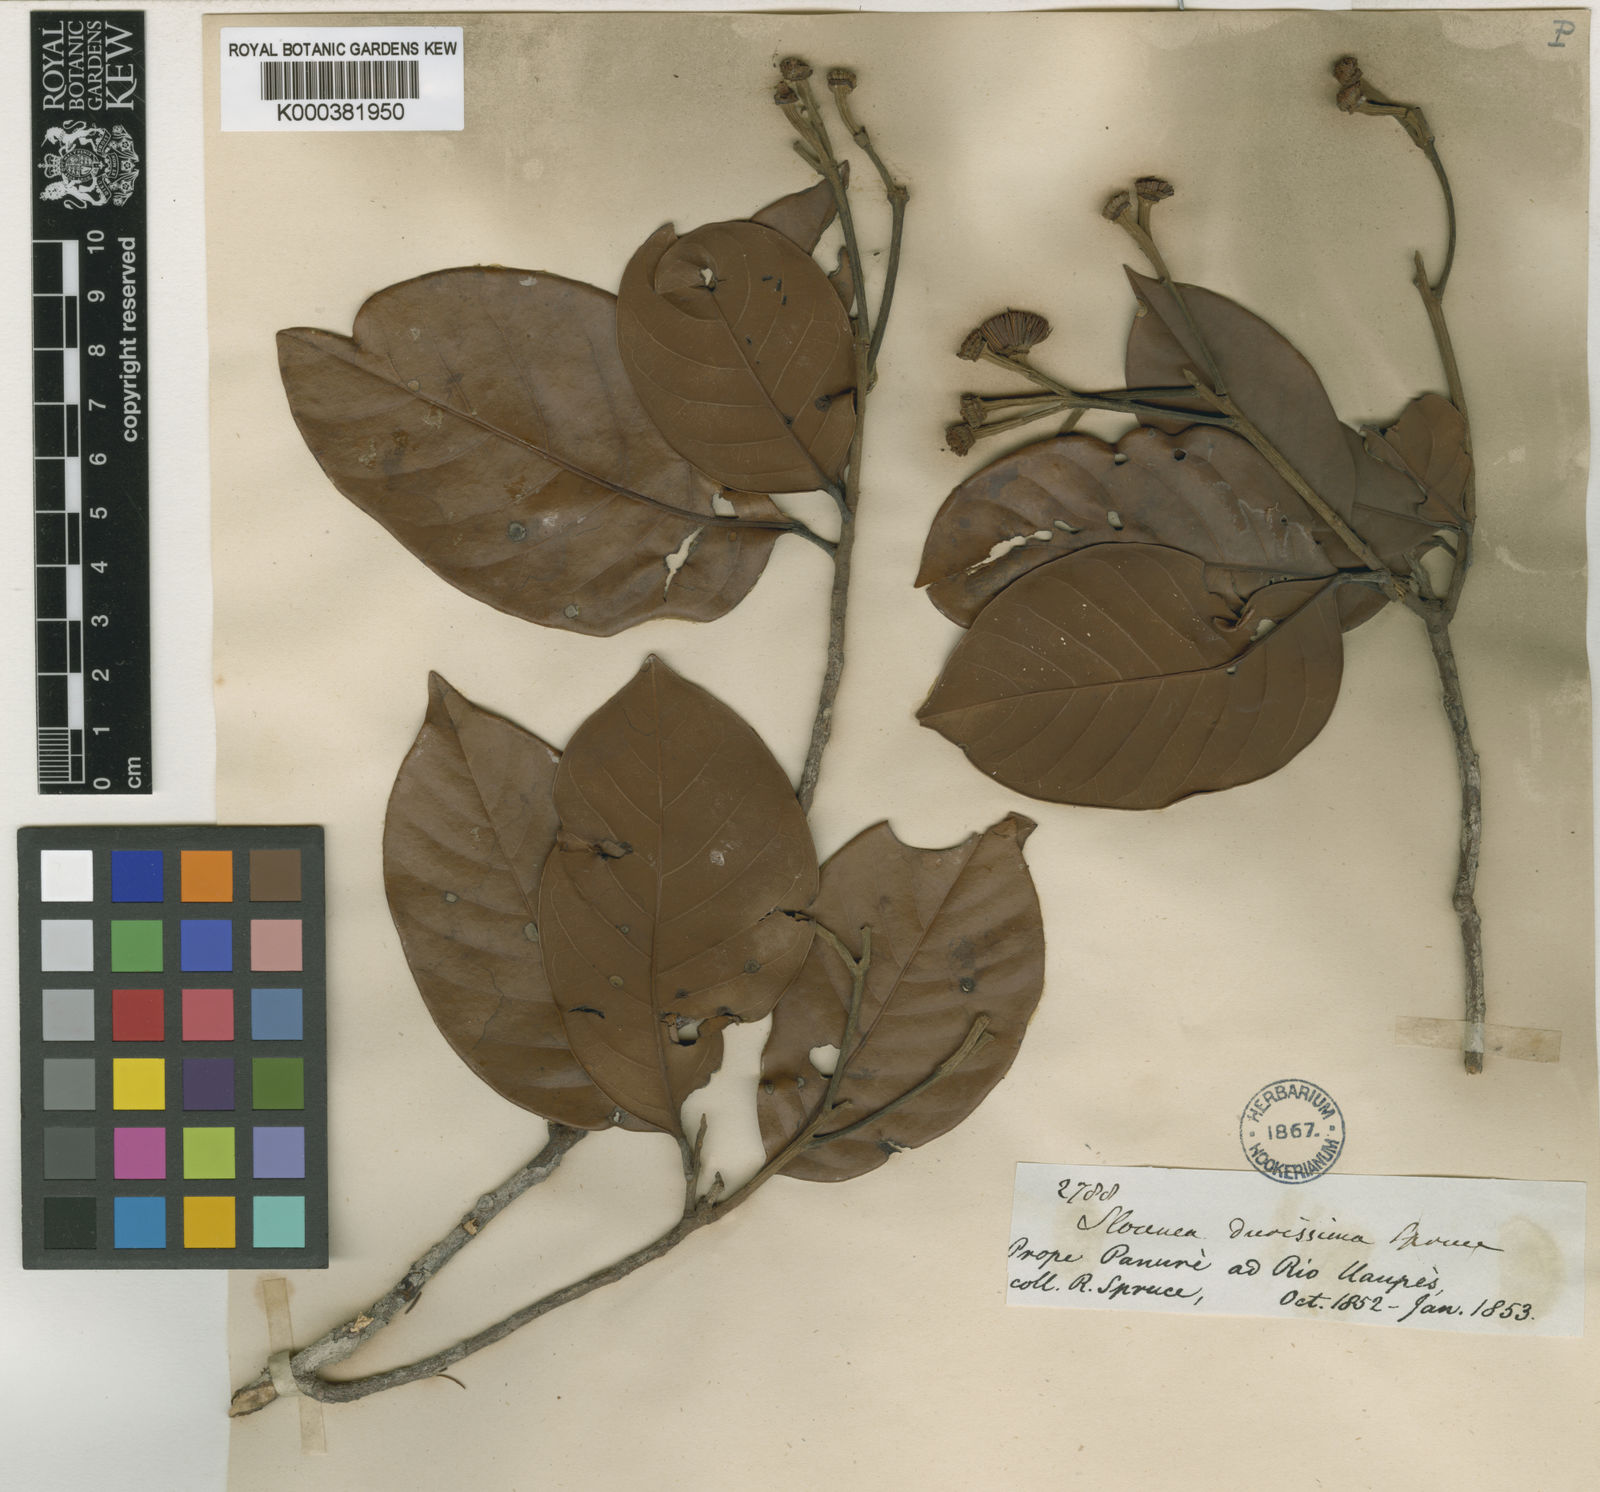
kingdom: Plantae
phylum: Tracheophyta
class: Magnoliopsida
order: Oxalidales
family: Elaeocarpaceae
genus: Sloanea
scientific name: Sloanea durissima
